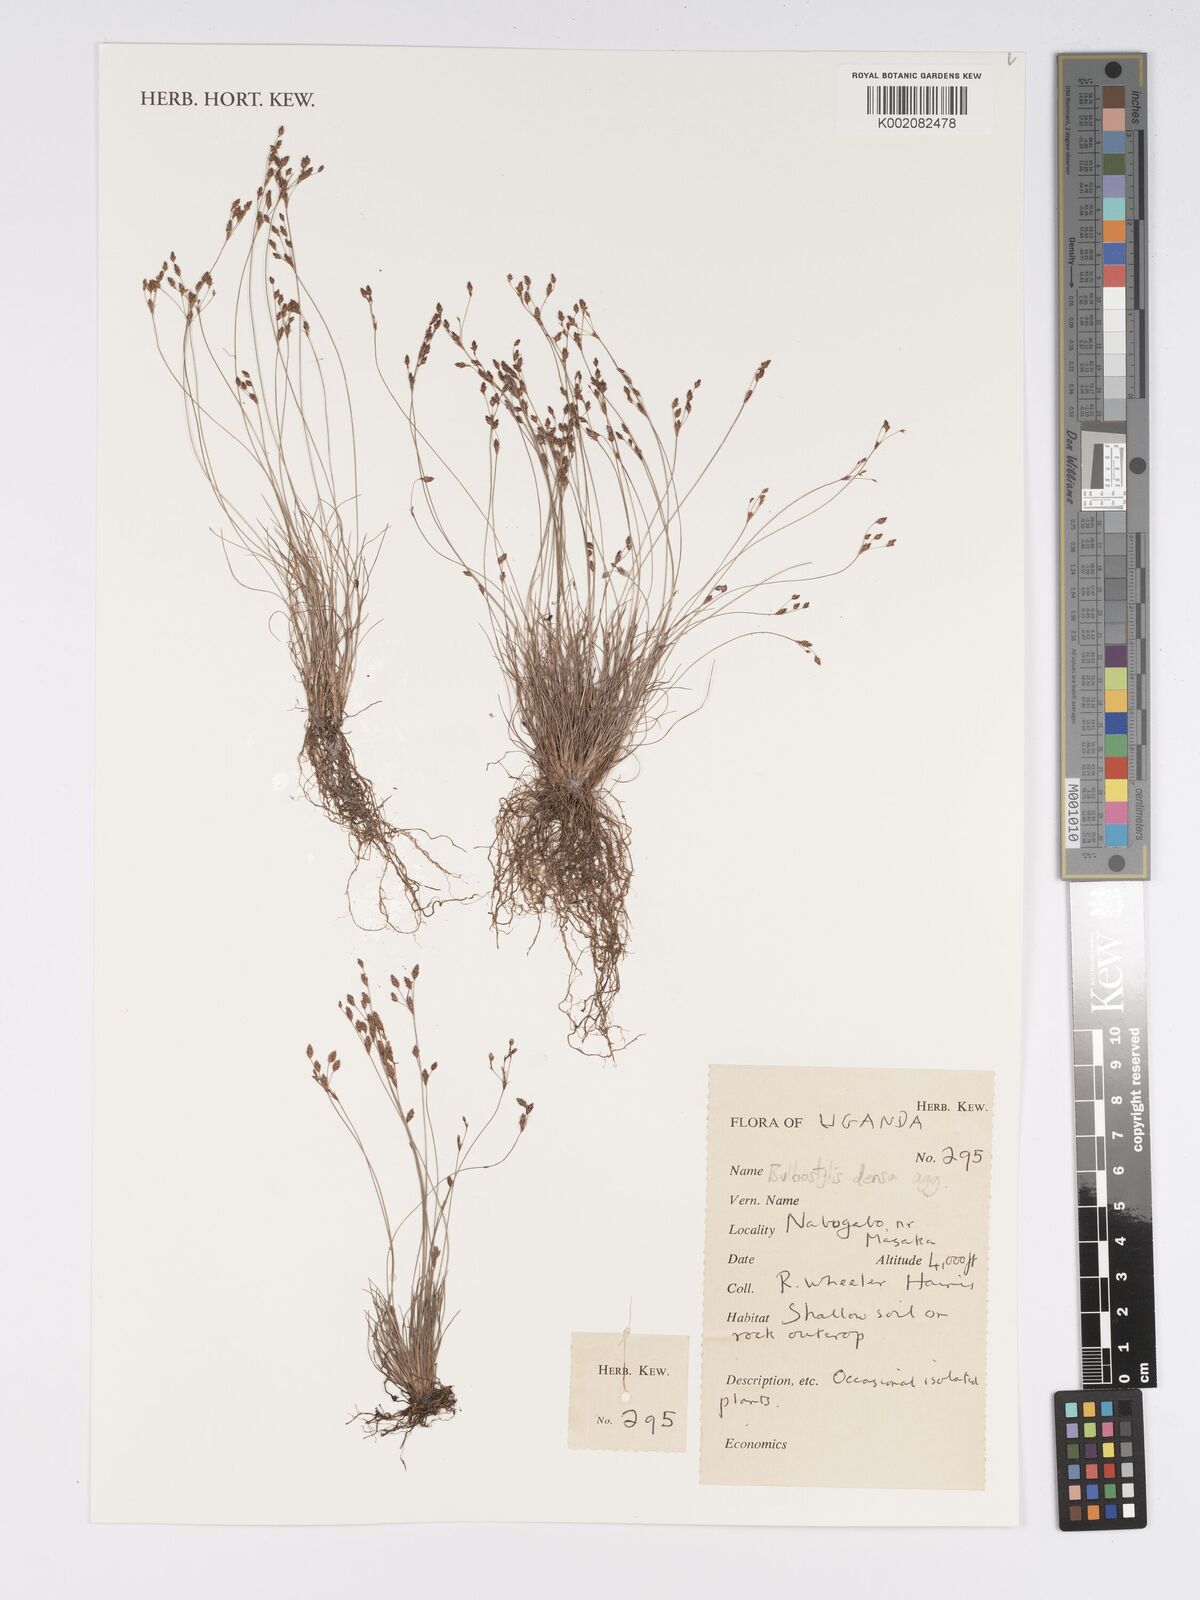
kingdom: Plantae
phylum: Tracheophyta
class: Liliopsida
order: Poales
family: Cyperaceae
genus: Bulbostylis
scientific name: Bulbostylis densa
